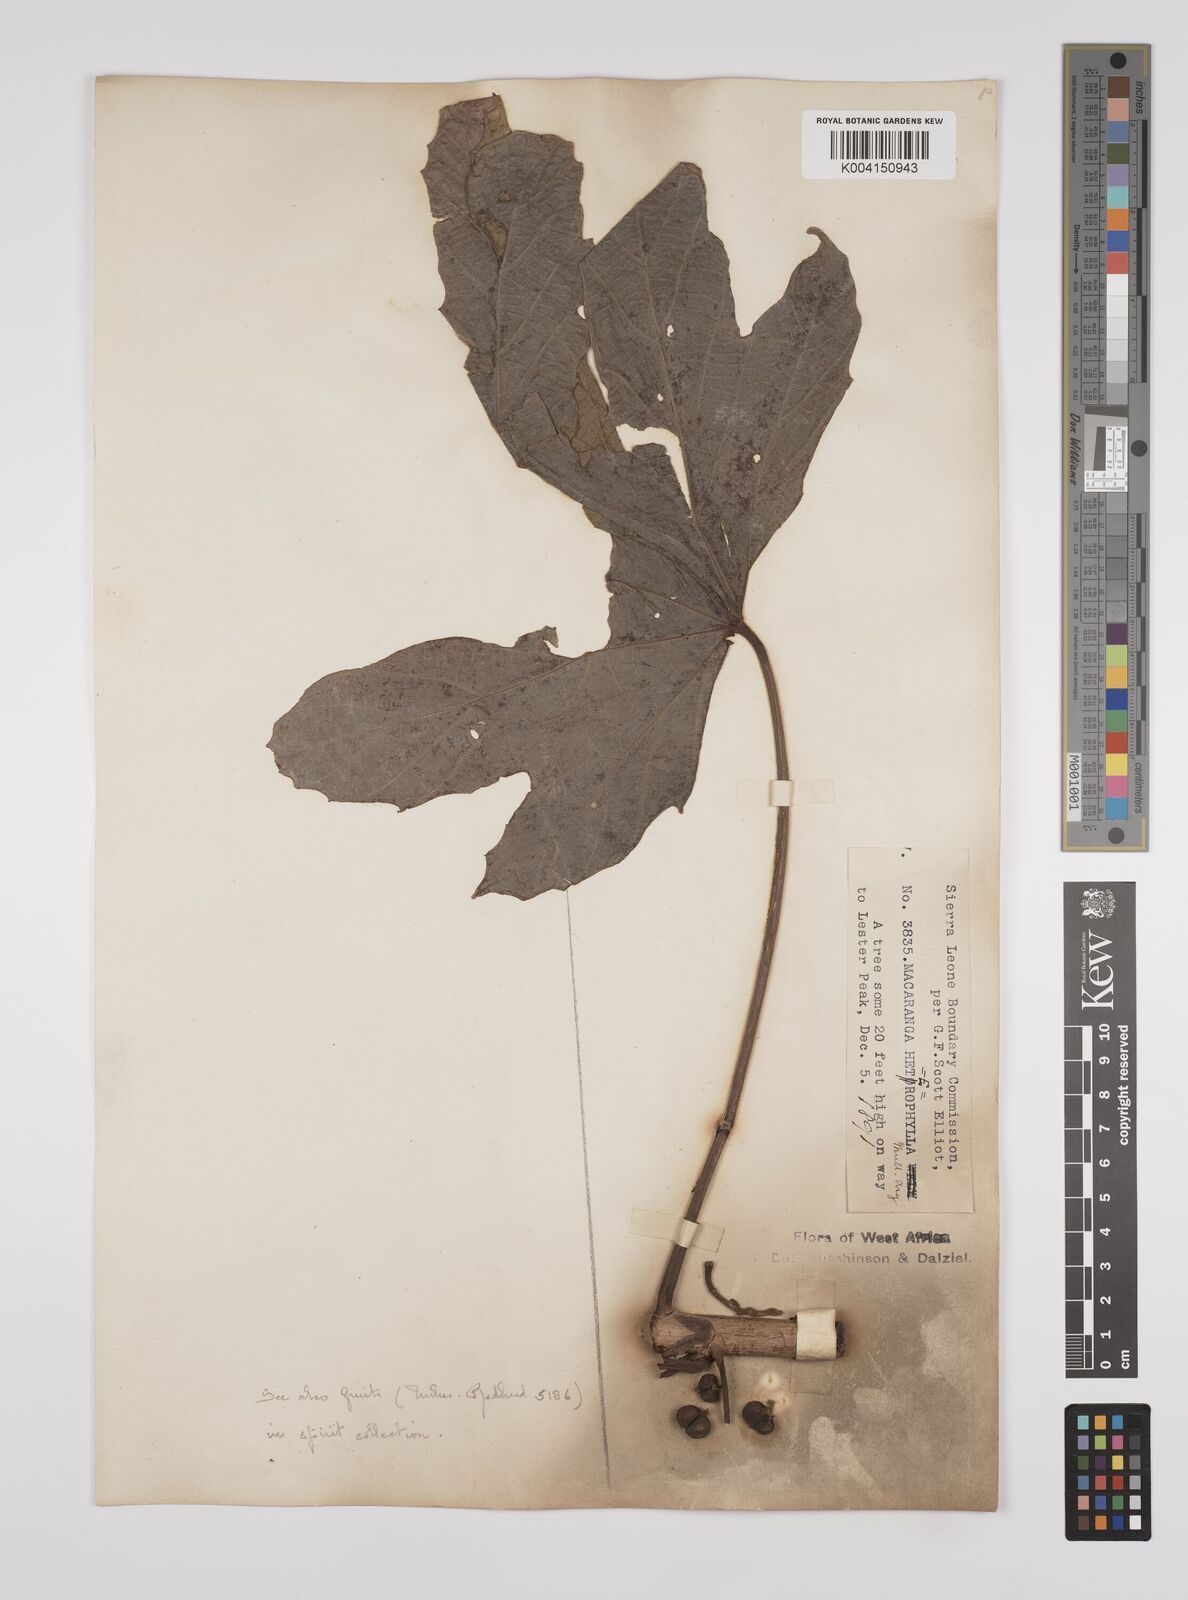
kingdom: Plantae
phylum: Tracheophyta
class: Magnoliopsida
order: Malpighiales
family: Euphorbiaceae
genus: Macaranga
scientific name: Macaranga heterophylla
